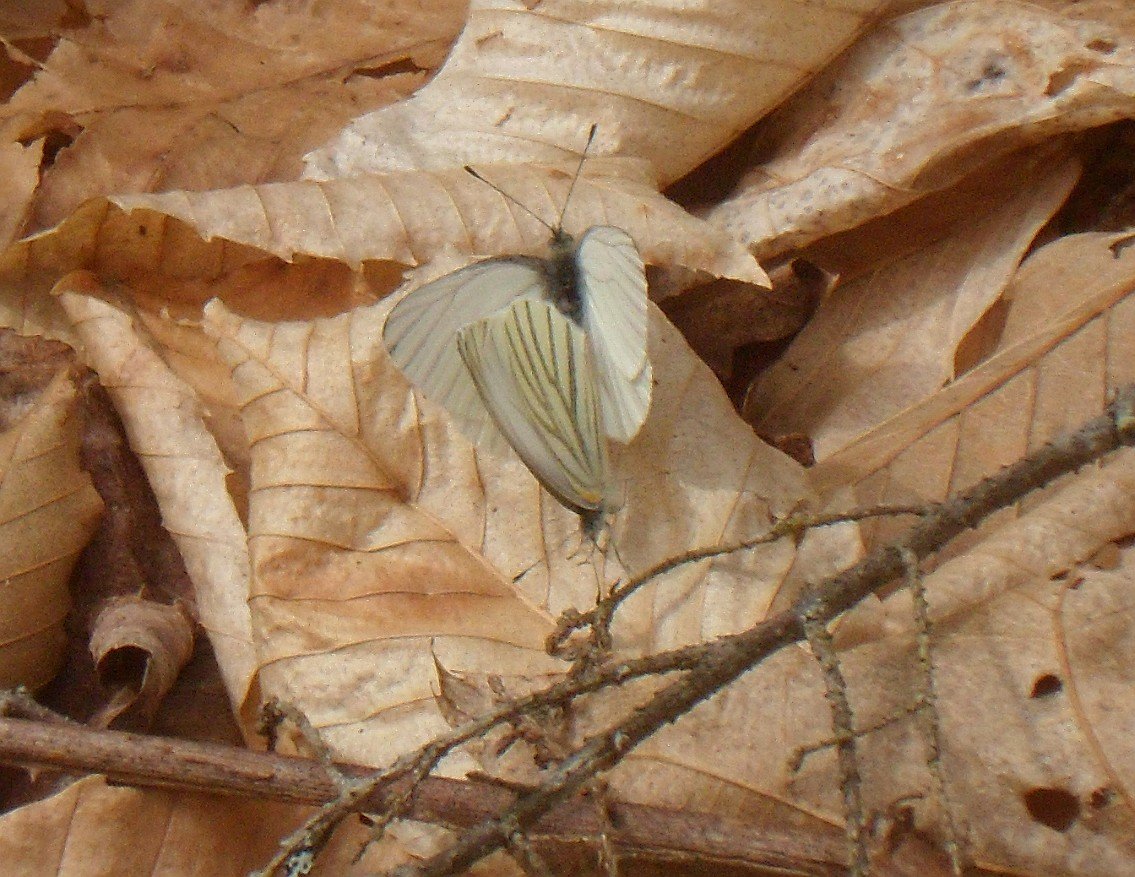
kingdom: Animalia
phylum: Arthropoda
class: Insecta
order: Lepidoptera
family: Pieridae
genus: Pieris
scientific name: Pieris oleracea
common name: Mustard White
